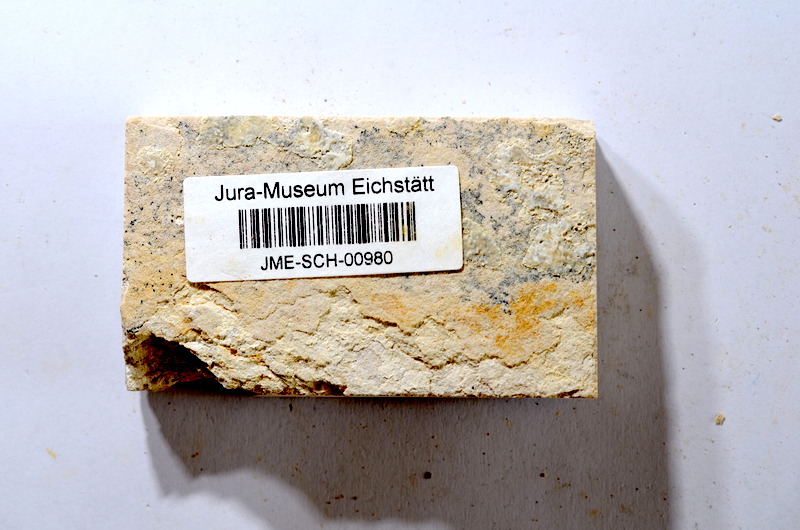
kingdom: Animalia
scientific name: Animalia
